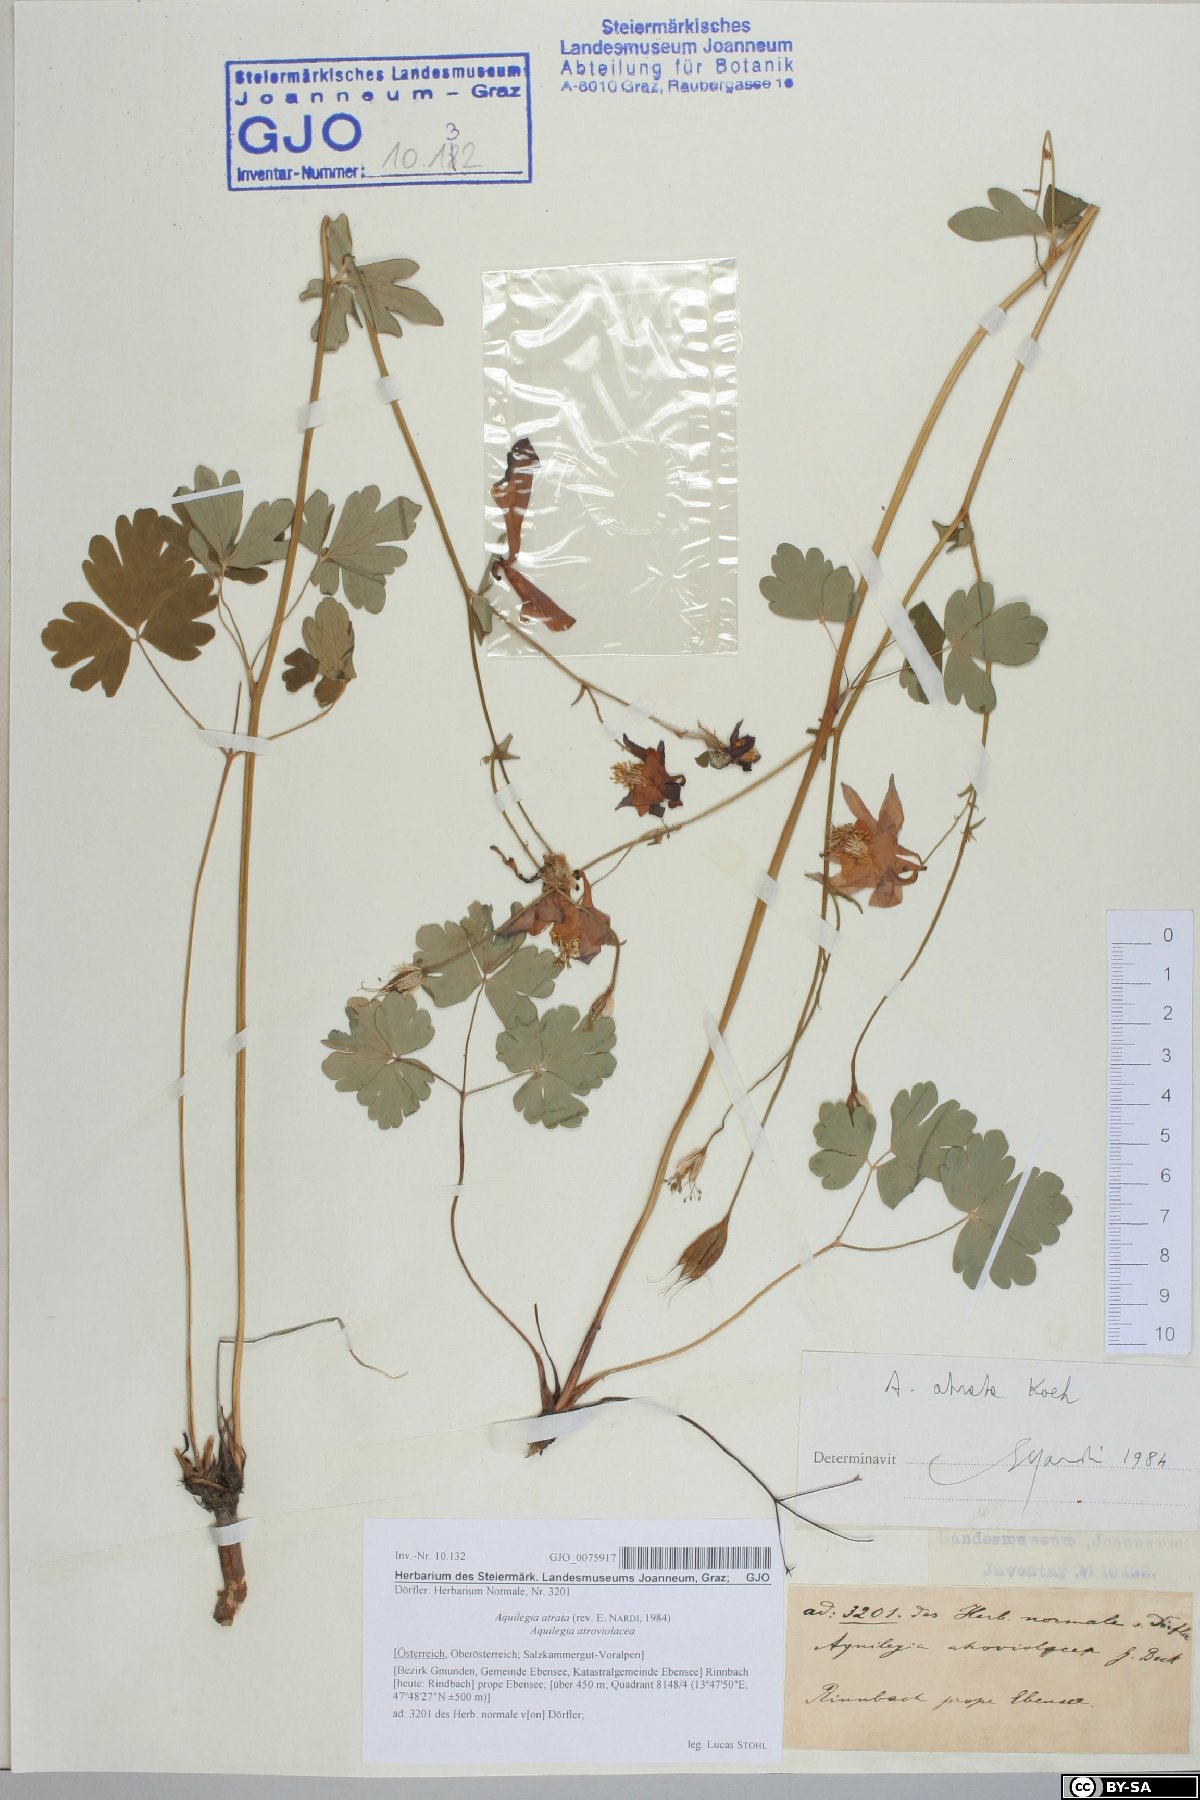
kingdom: Plantae
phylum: Tracheophyta
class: Magnoliopsida
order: Ranunculales
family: Ranunculaceae
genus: Aquilegia
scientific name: Aquilegia atrata
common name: Dark columbine
